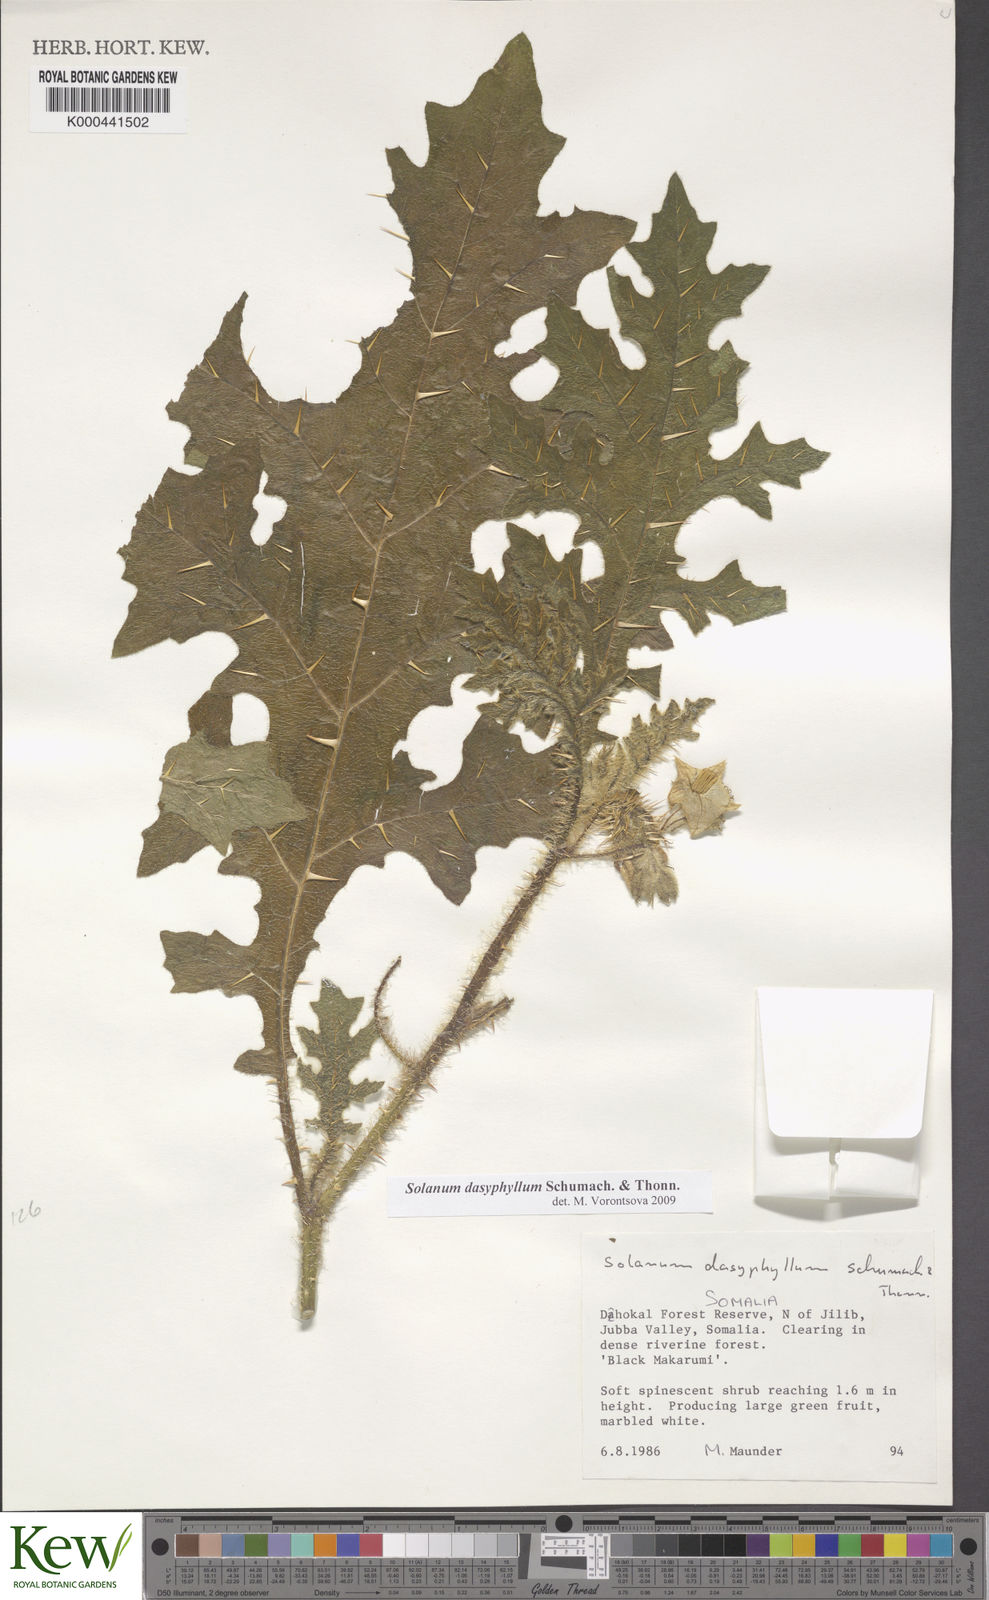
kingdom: Plantae
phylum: Tracheophyta
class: Magnoliopsida
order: Solanales
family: Solanaceae
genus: Solanum
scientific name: Solanum dasyphyllum
